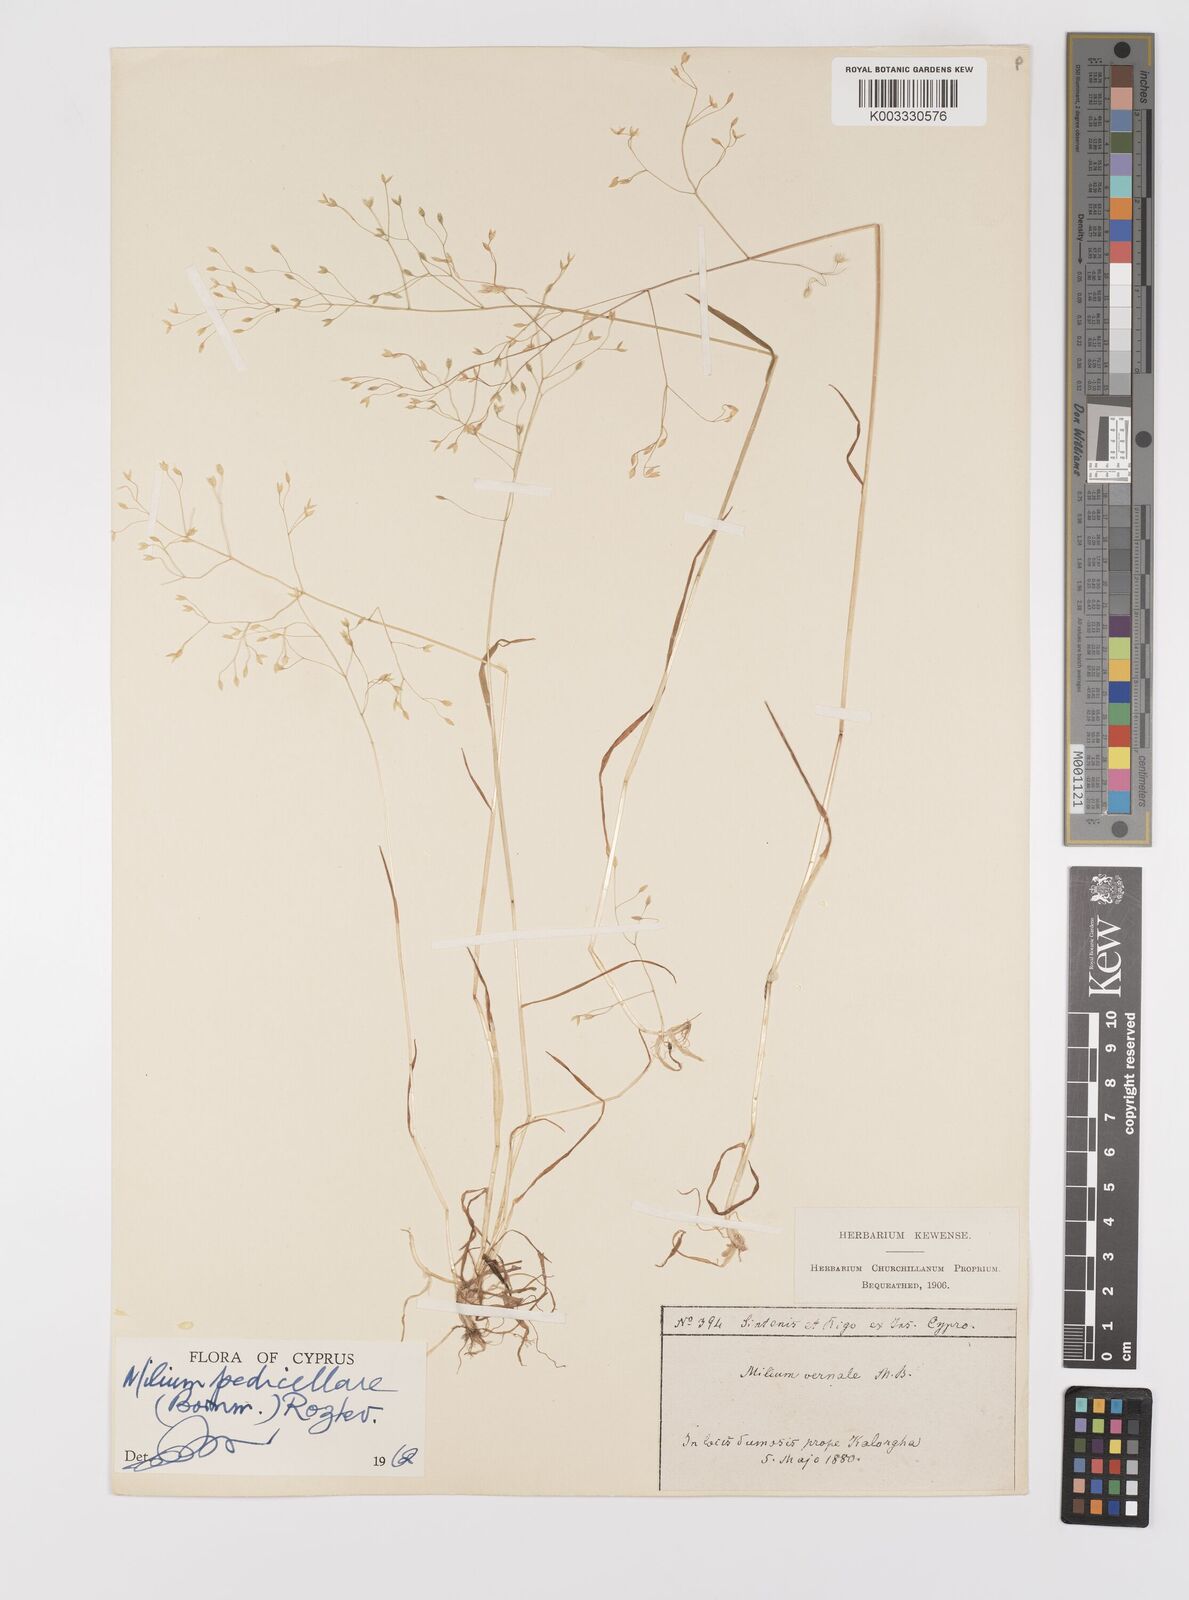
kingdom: Plantae
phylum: Tracheophyta
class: Liliopsida
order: Poales
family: Poaceae
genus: Milium
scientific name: Milium pedicellare
